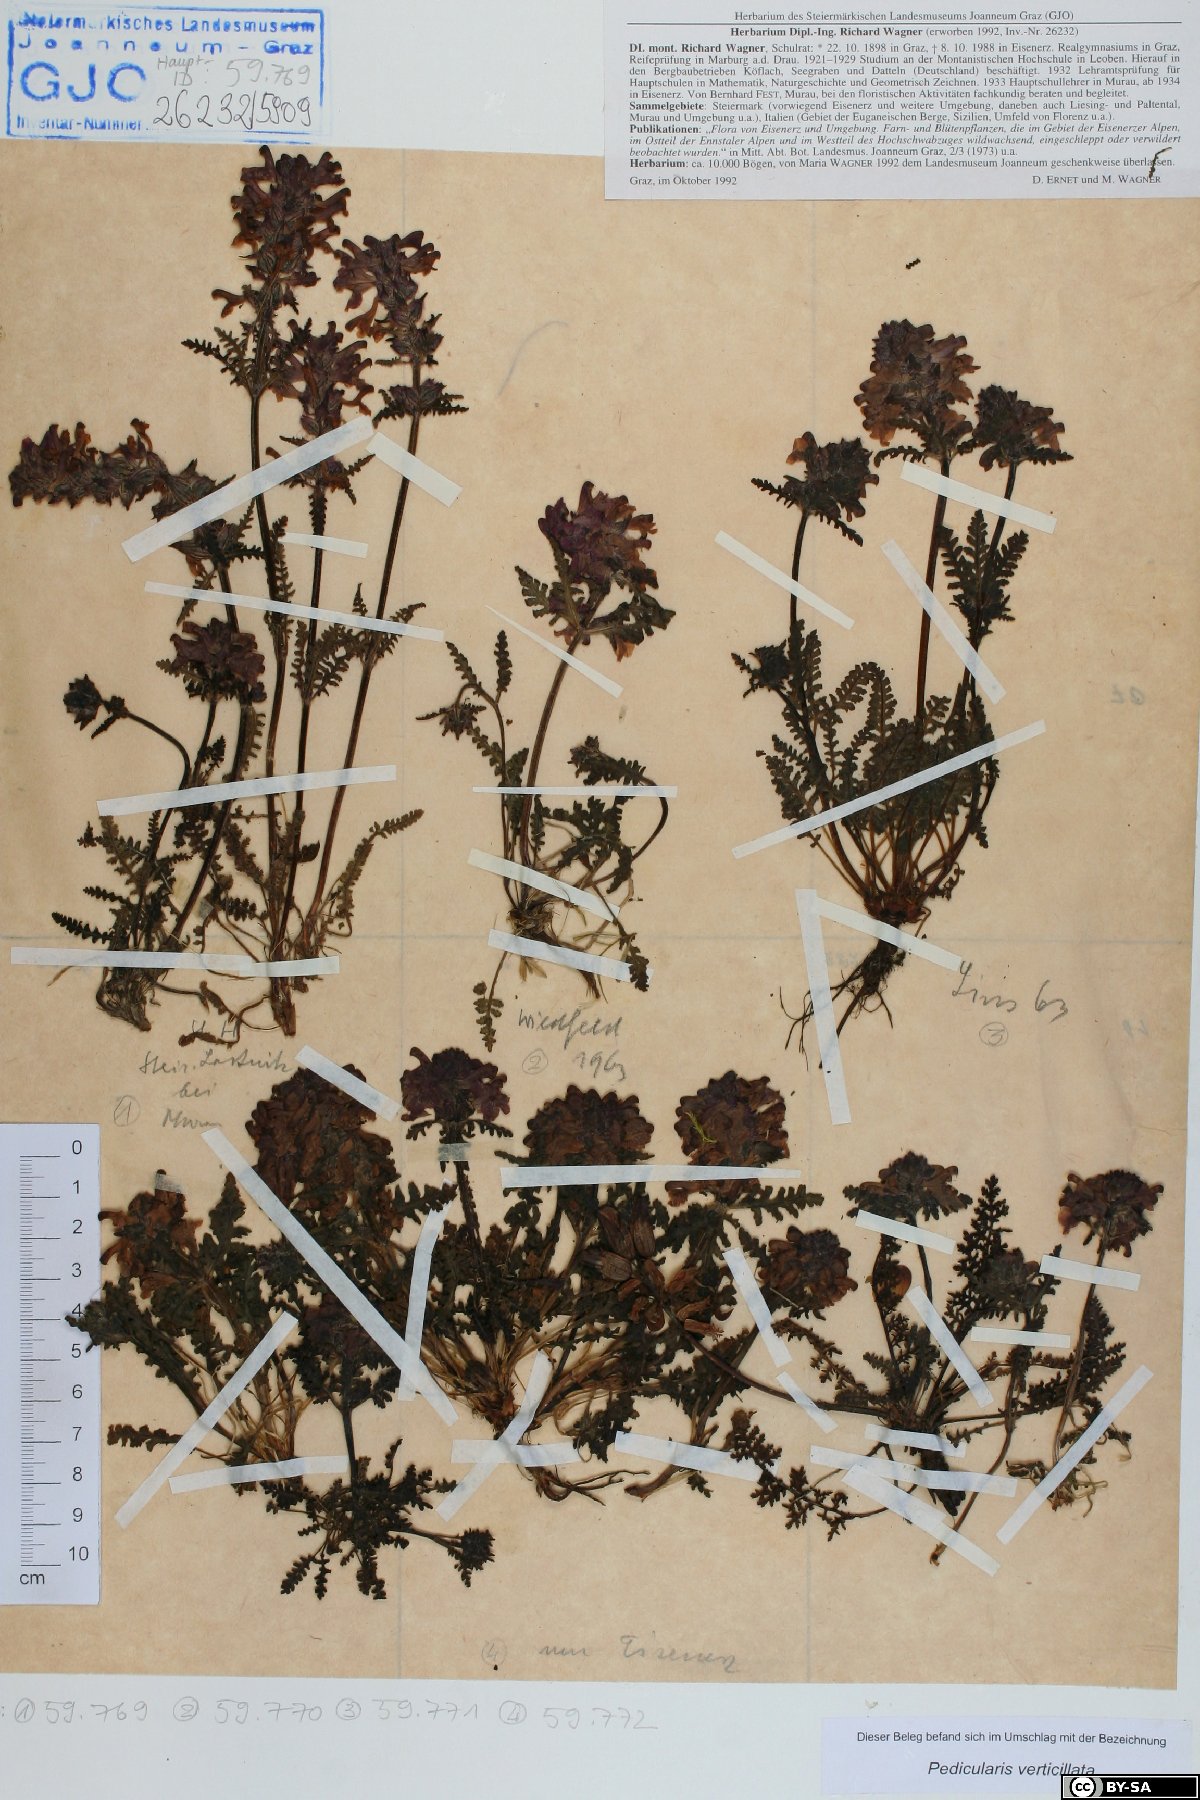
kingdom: Plantae
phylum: Tracheophyta
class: Magnoliopsida
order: Lamiales
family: Orobanchaceae
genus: Pedicularis
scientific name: Pedicularis verticillata
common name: Whorled lousewort
